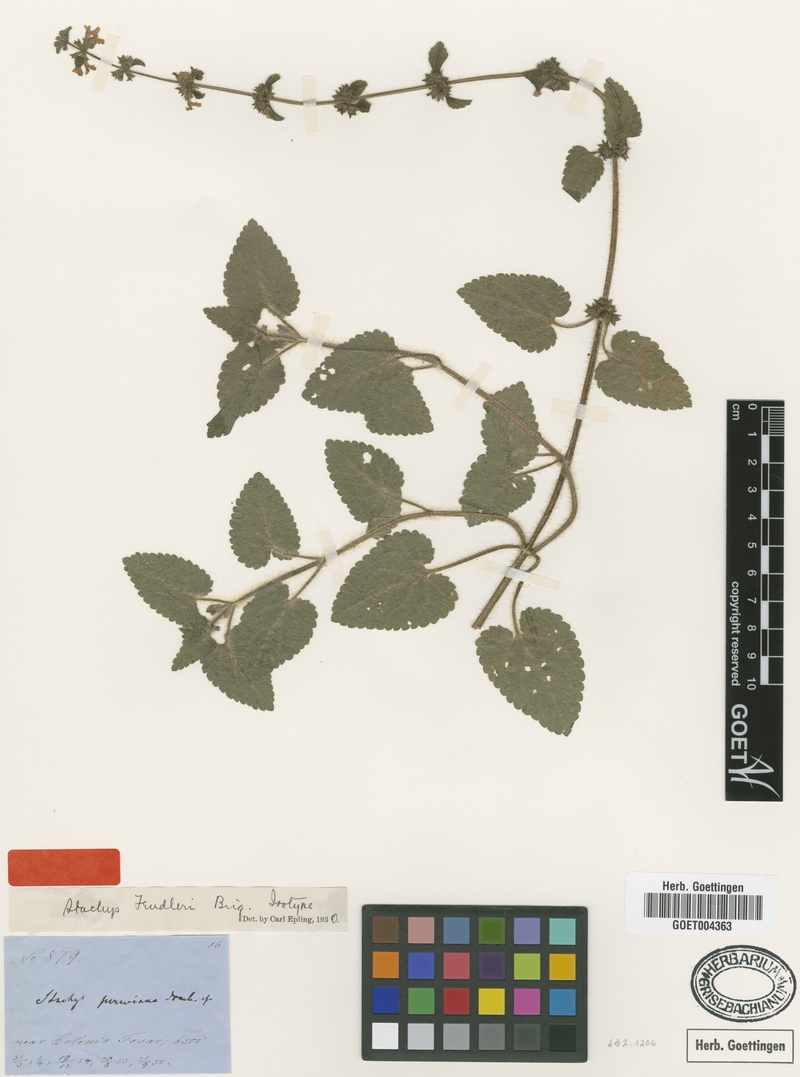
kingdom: Plantae
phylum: Tracheophyta
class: Magnoliopsida
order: Lamiales
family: Lamiaceae
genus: Stachys
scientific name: Stachys fendleri
